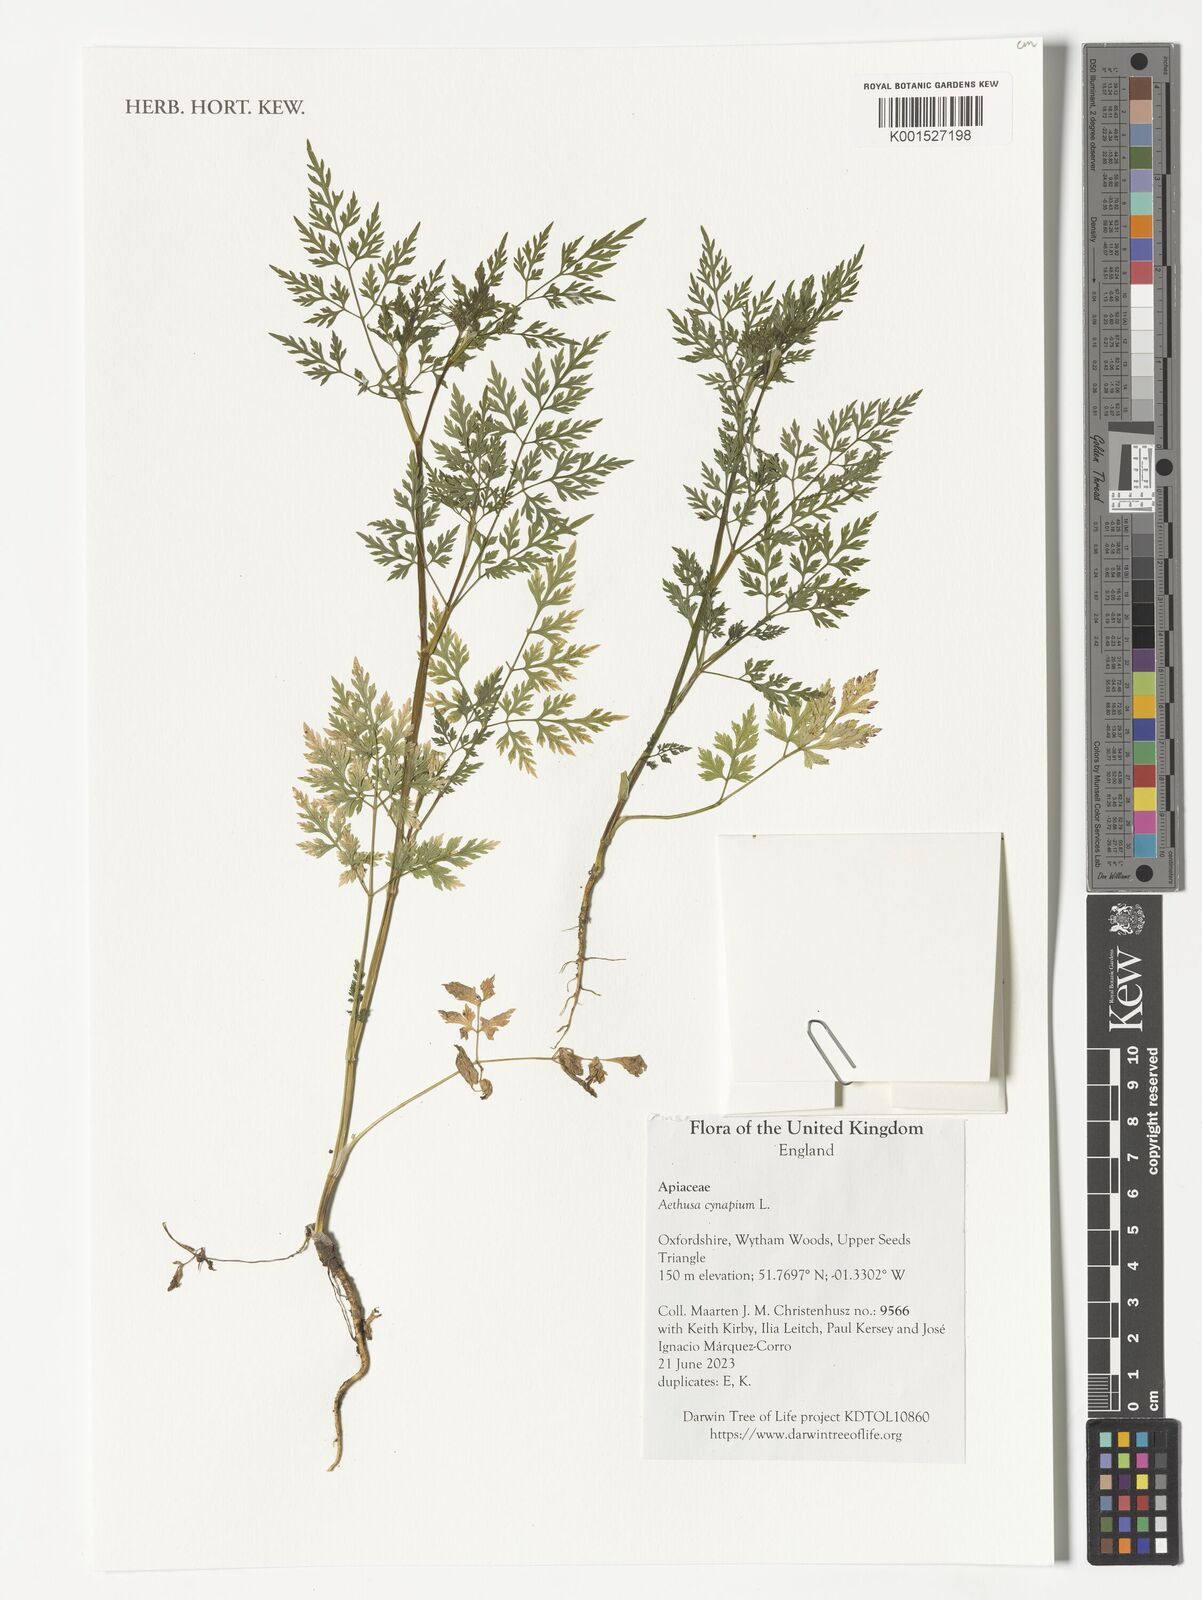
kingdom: Plantae
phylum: Tracheophyta
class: Magnoliopsida
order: Apiales
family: Apiaceae
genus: Aethusa
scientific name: Aethusa cynapium
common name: Fool's parsley
